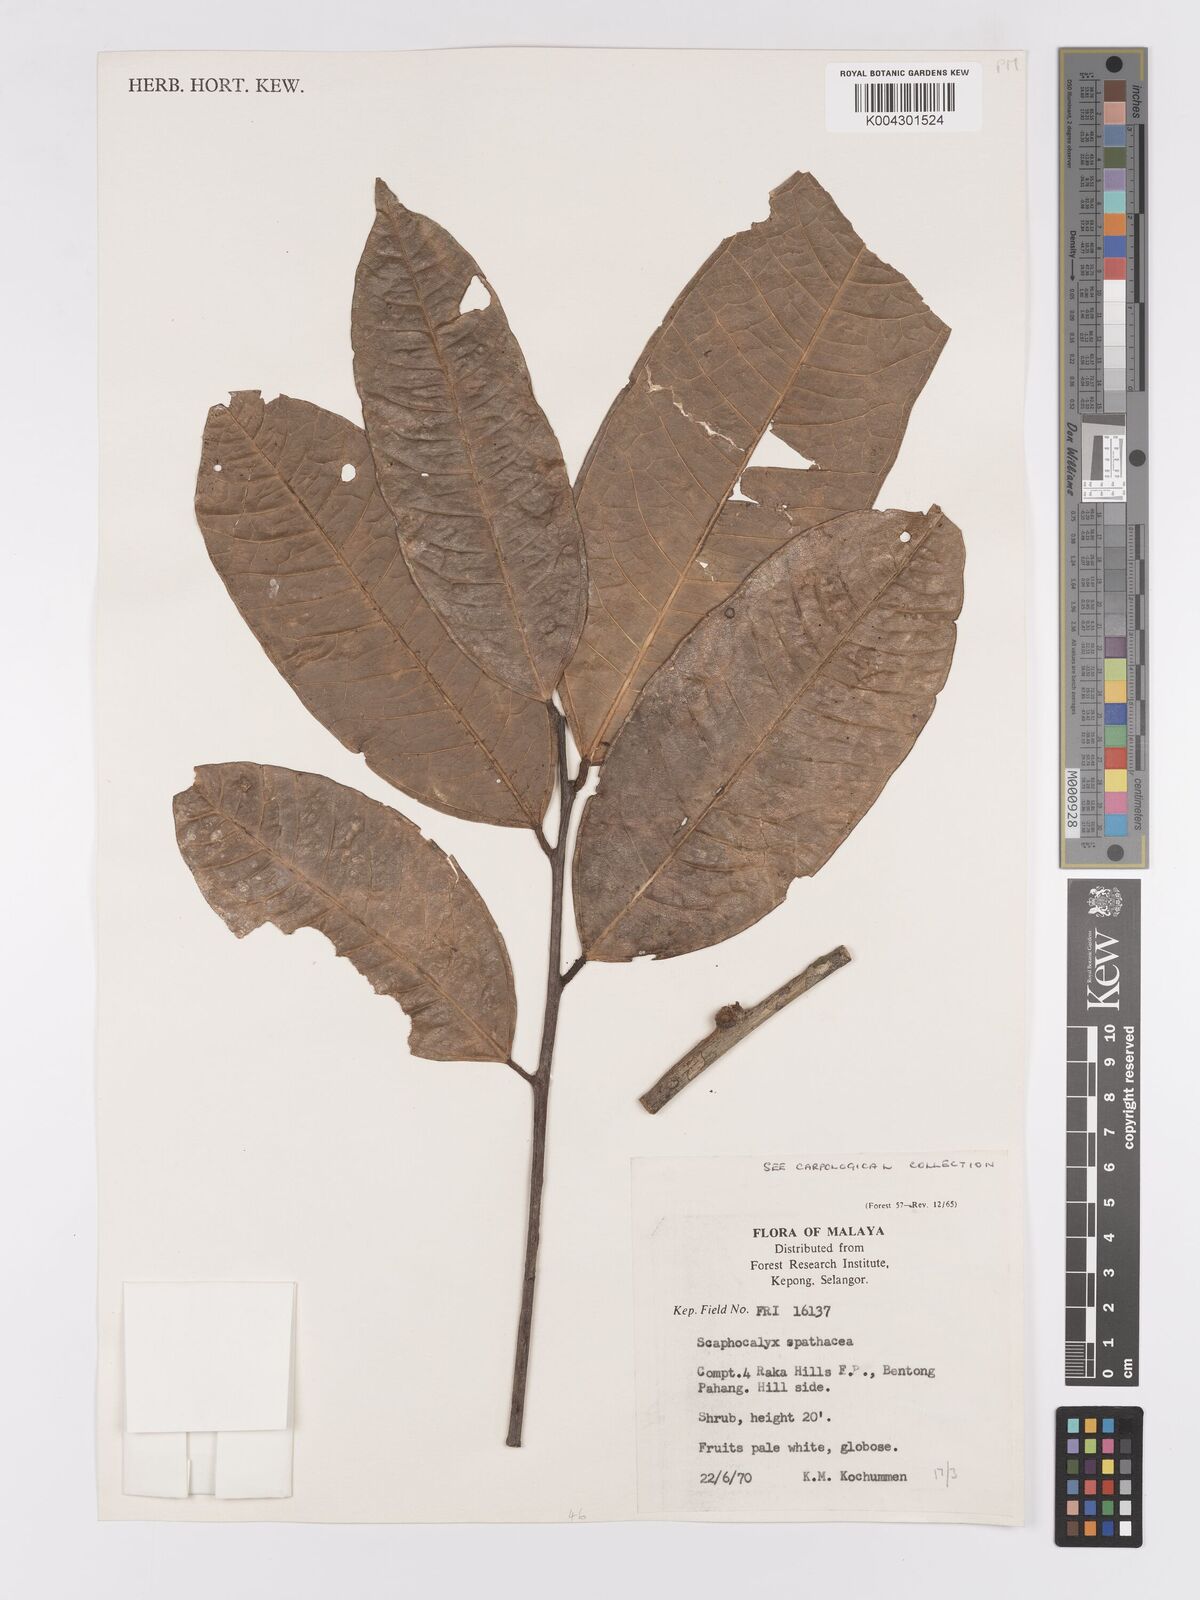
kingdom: Plantae
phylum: Tracheophyta
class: Magnoliopsida
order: Malpighiales
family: Achariaceae
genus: Scaphocalyx
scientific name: Scaphocalyx spathacea
